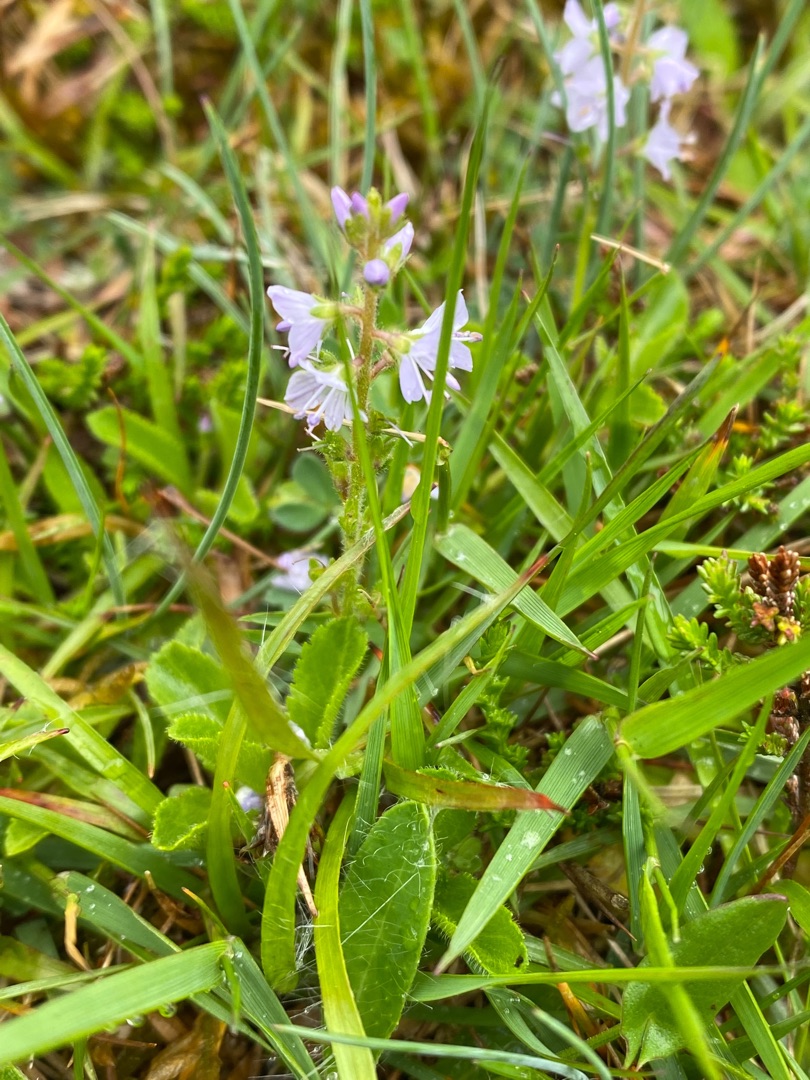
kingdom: Plantae
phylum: Tracheophyta
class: Magnoliopsida
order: Lamiales
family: Plantaginaceae
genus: Veronica
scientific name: Veronica officinalis
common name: Læge-ærenpris
